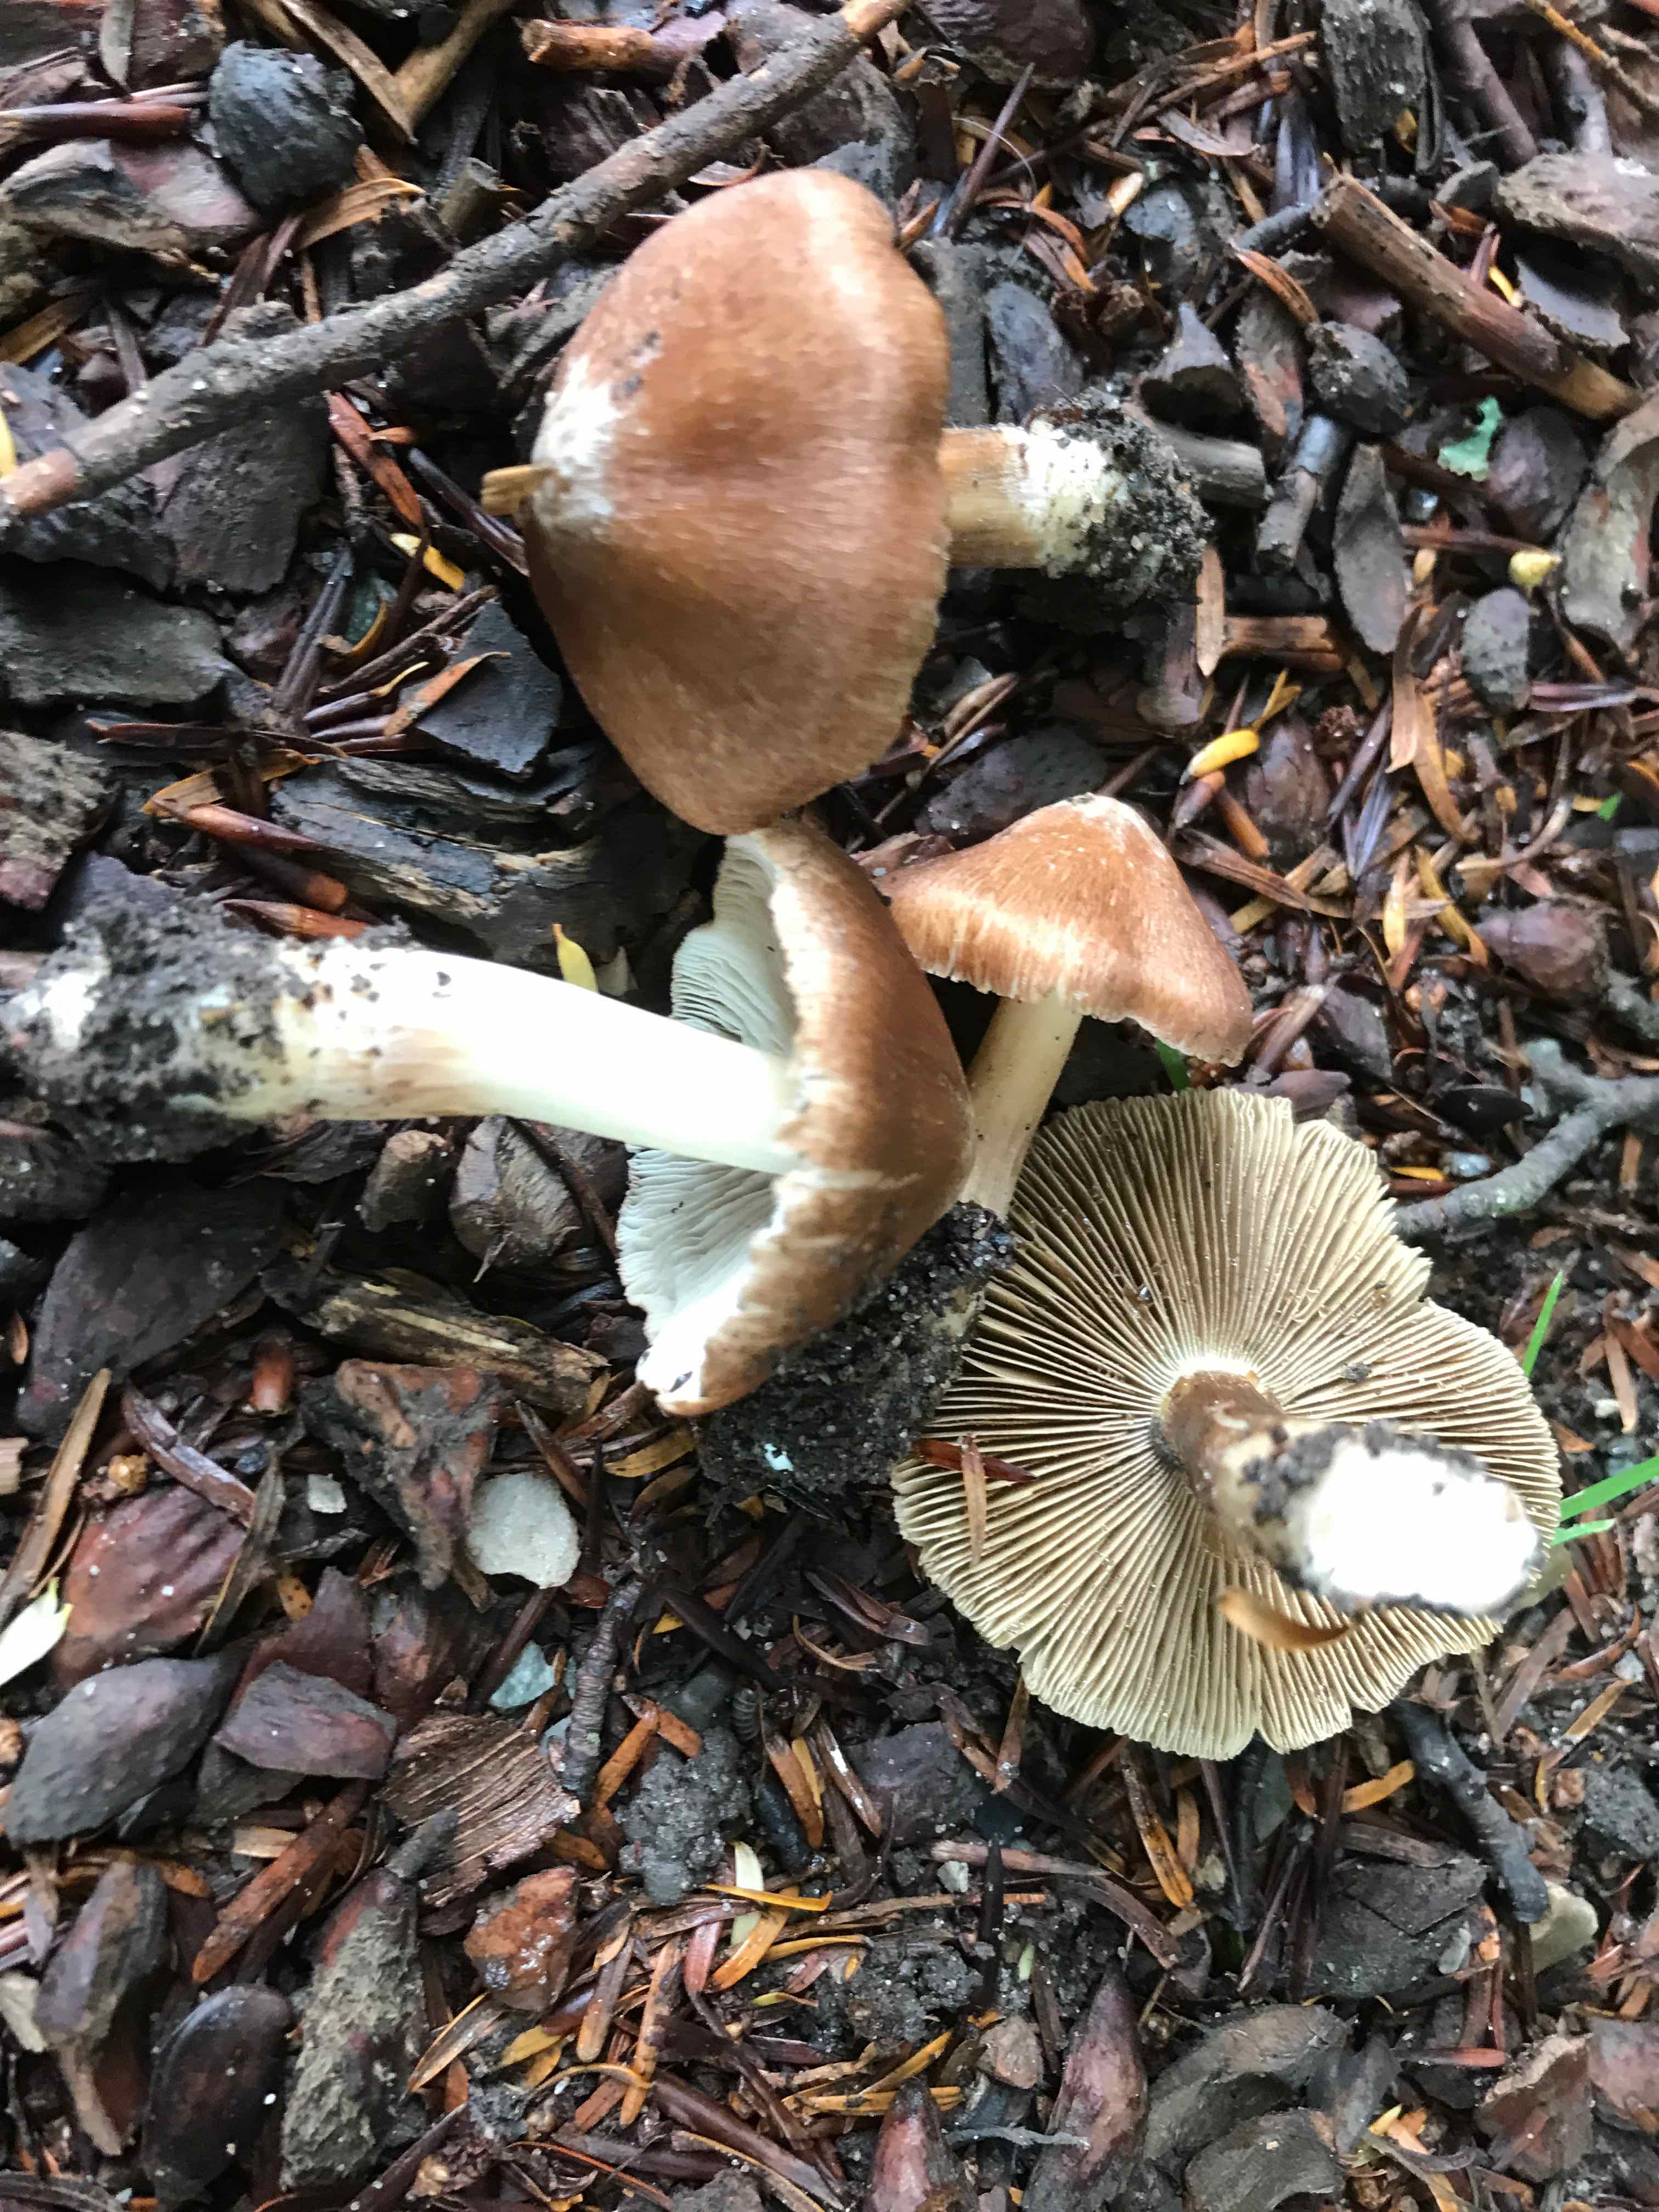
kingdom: Fungi
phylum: Basidiomycota
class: Agaricomycetes
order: Agaricales
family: Inocybaceae
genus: Inosperma
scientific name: Inosperma
